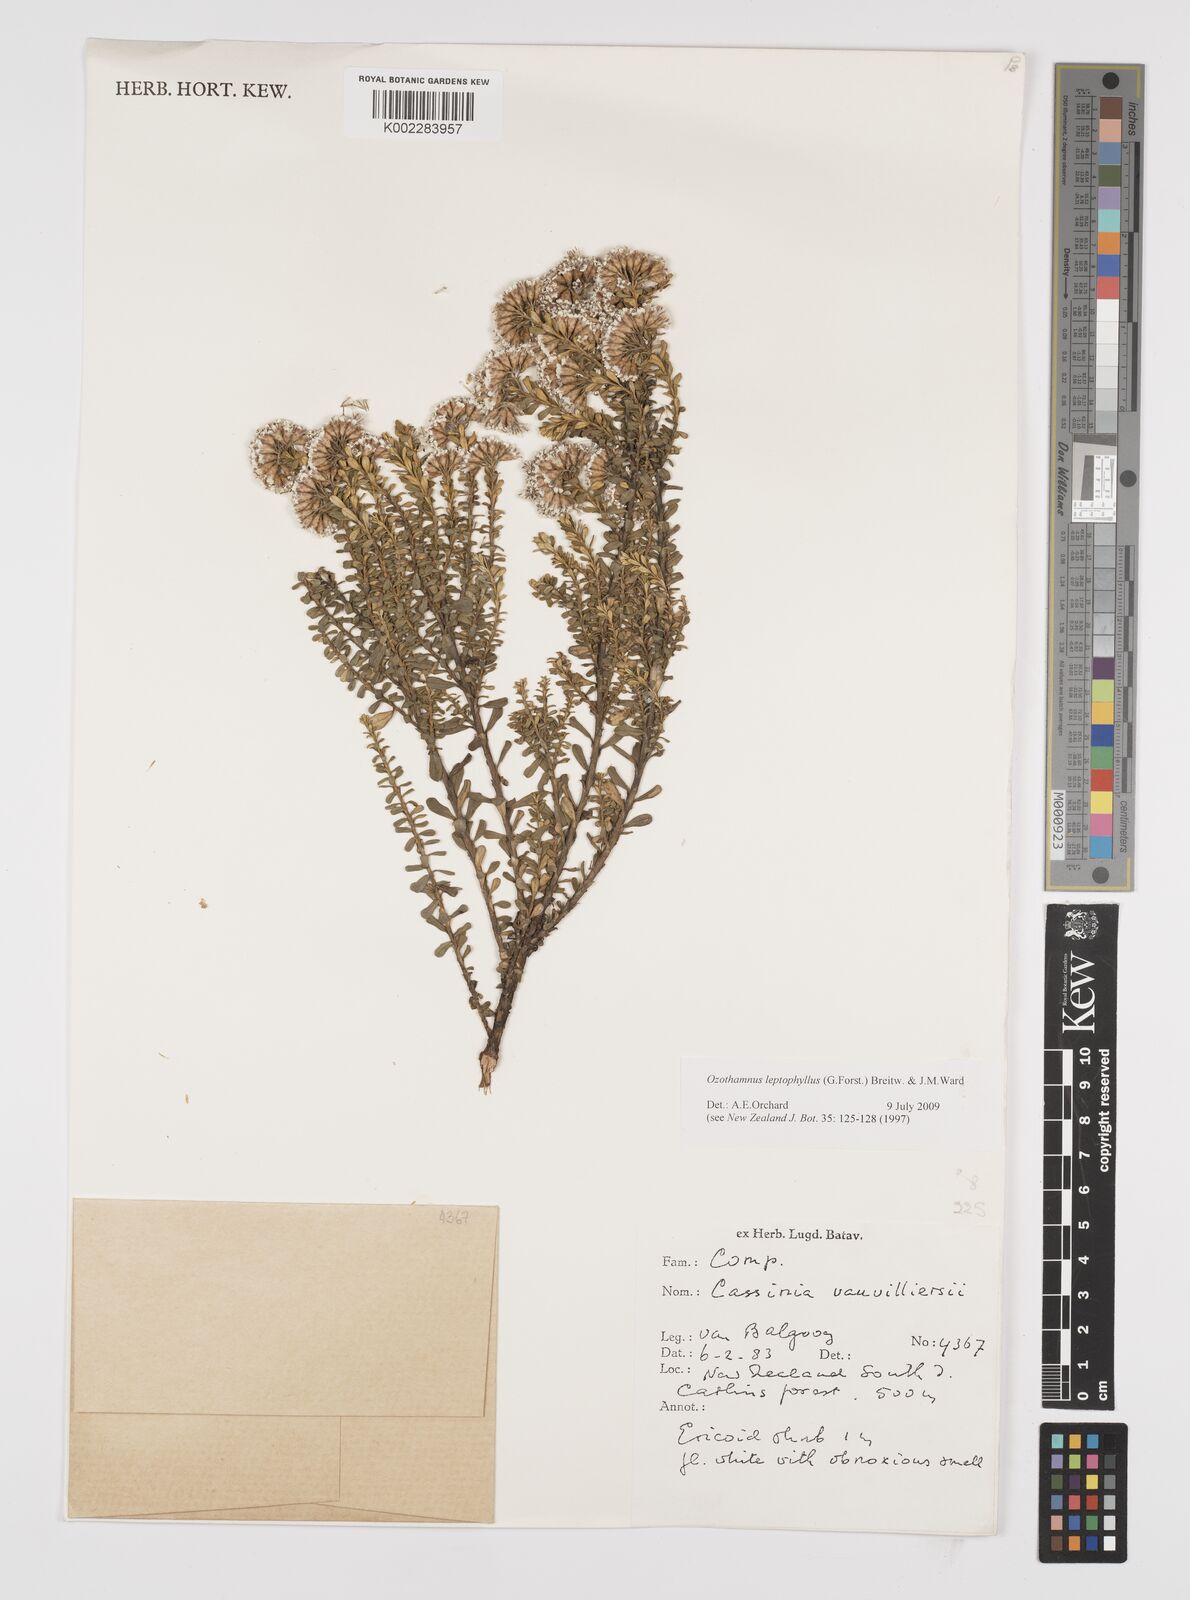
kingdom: Plantae
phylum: Tracheophyta
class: Magnoliopsida
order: Asterales
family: Asteraceae
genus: Ozothamnus
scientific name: Ozothamnus leptophyllus
